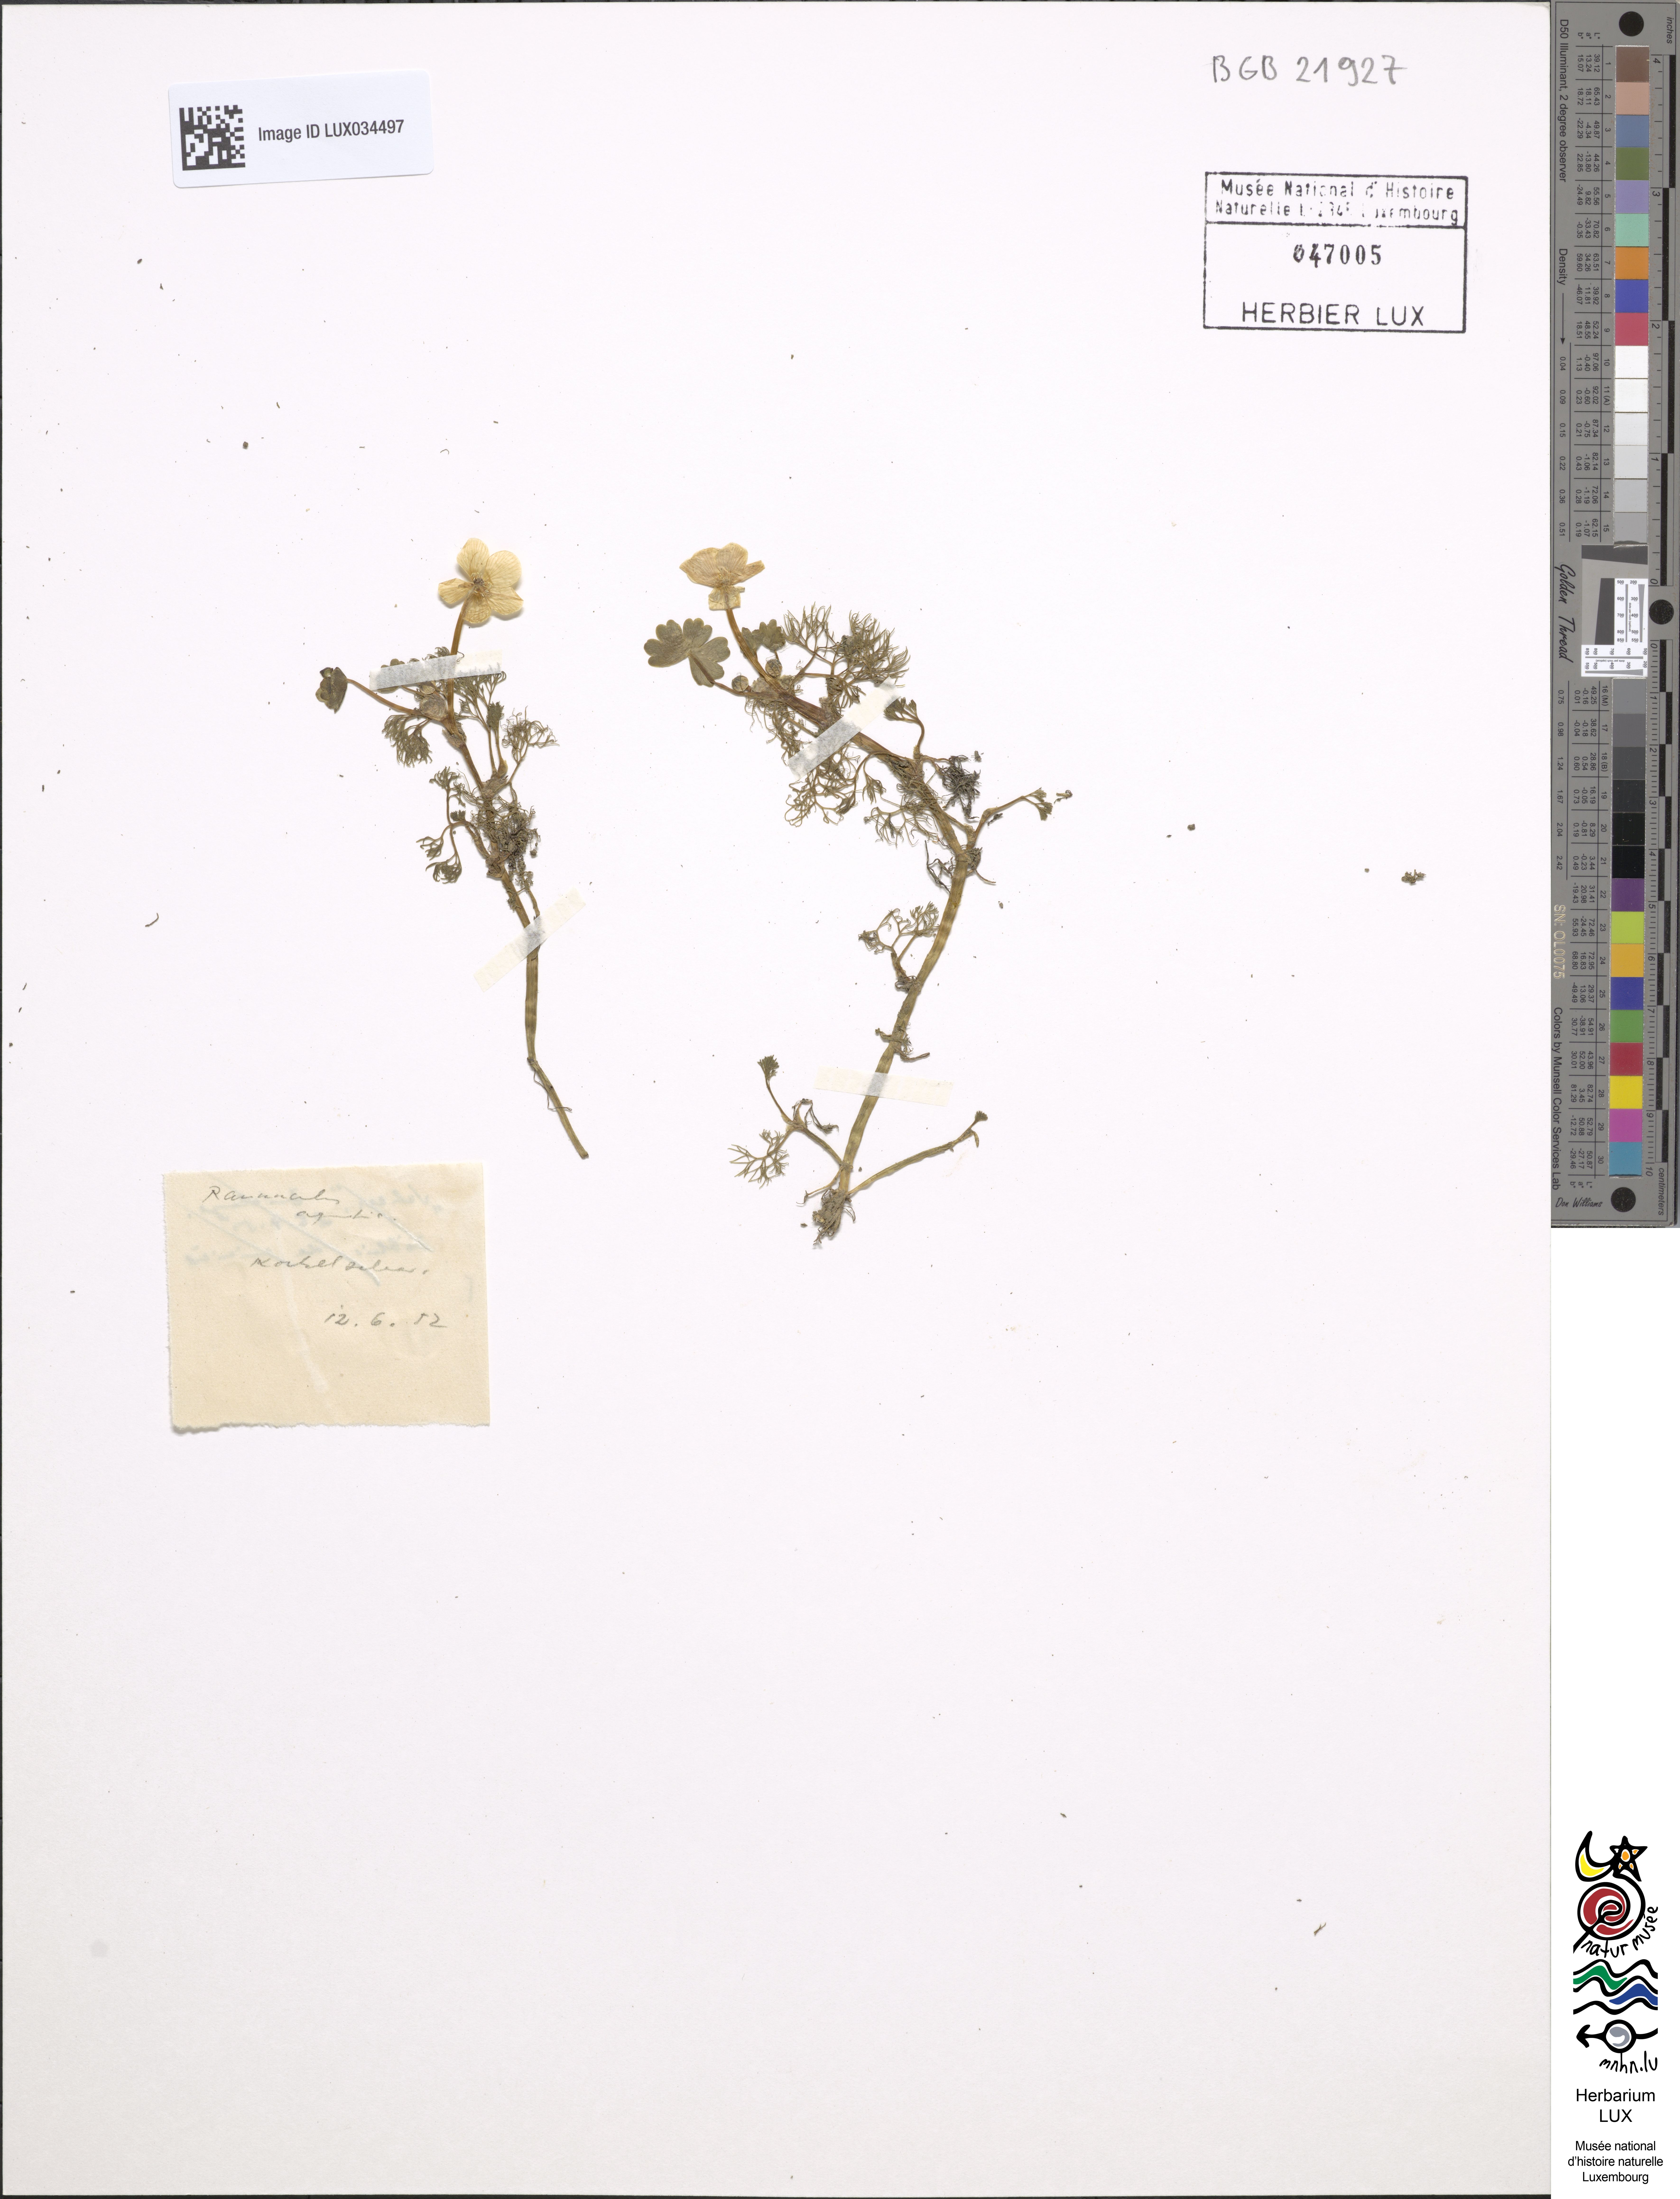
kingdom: Plantae
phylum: Tracheophyta
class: Magnoliopsida
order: Ranunculales
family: Ranunculaceae
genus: Ranunculus
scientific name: Ranunculus aquatilis
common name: Common water-crowfoot
